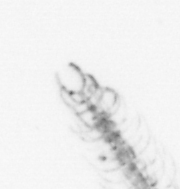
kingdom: Chromista
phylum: Ochrophyta
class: Bacillariophyceae
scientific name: Bacillariophyceae
